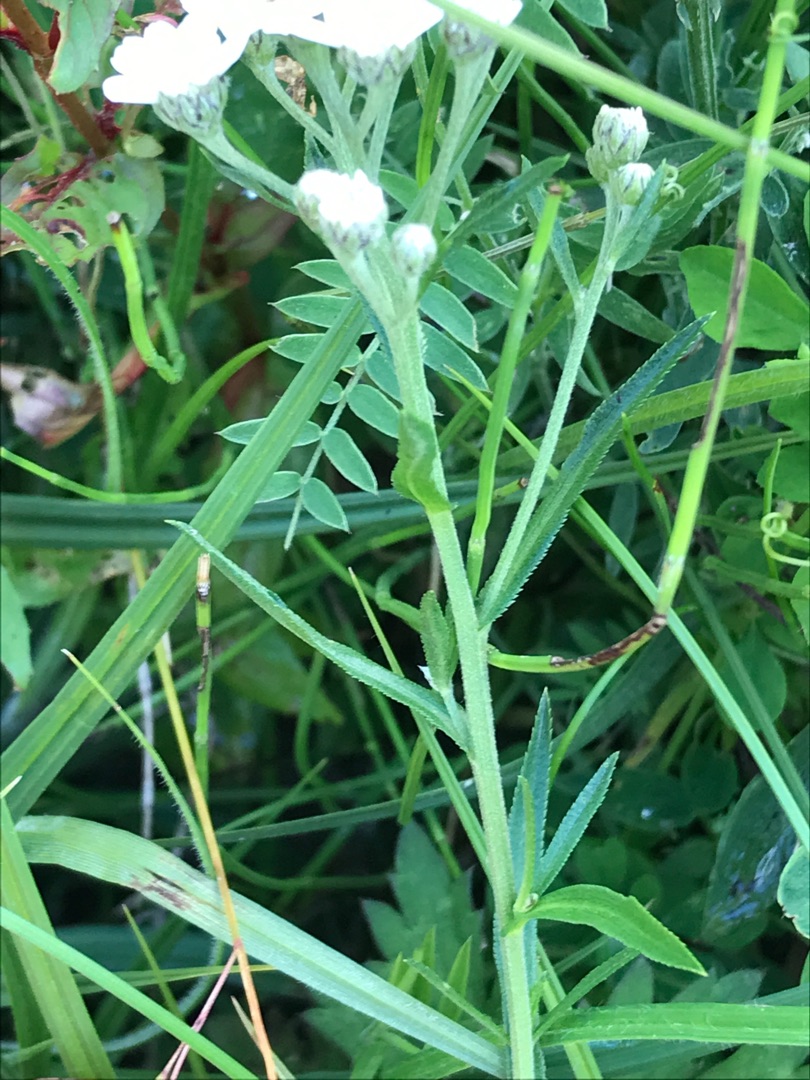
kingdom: Plantae
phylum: Tracheophyta
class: Magnoliopsida
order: Asterales
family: Asteraceae
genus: Achillea
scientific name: Achillea ptarmica
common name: Nyse-røllike
